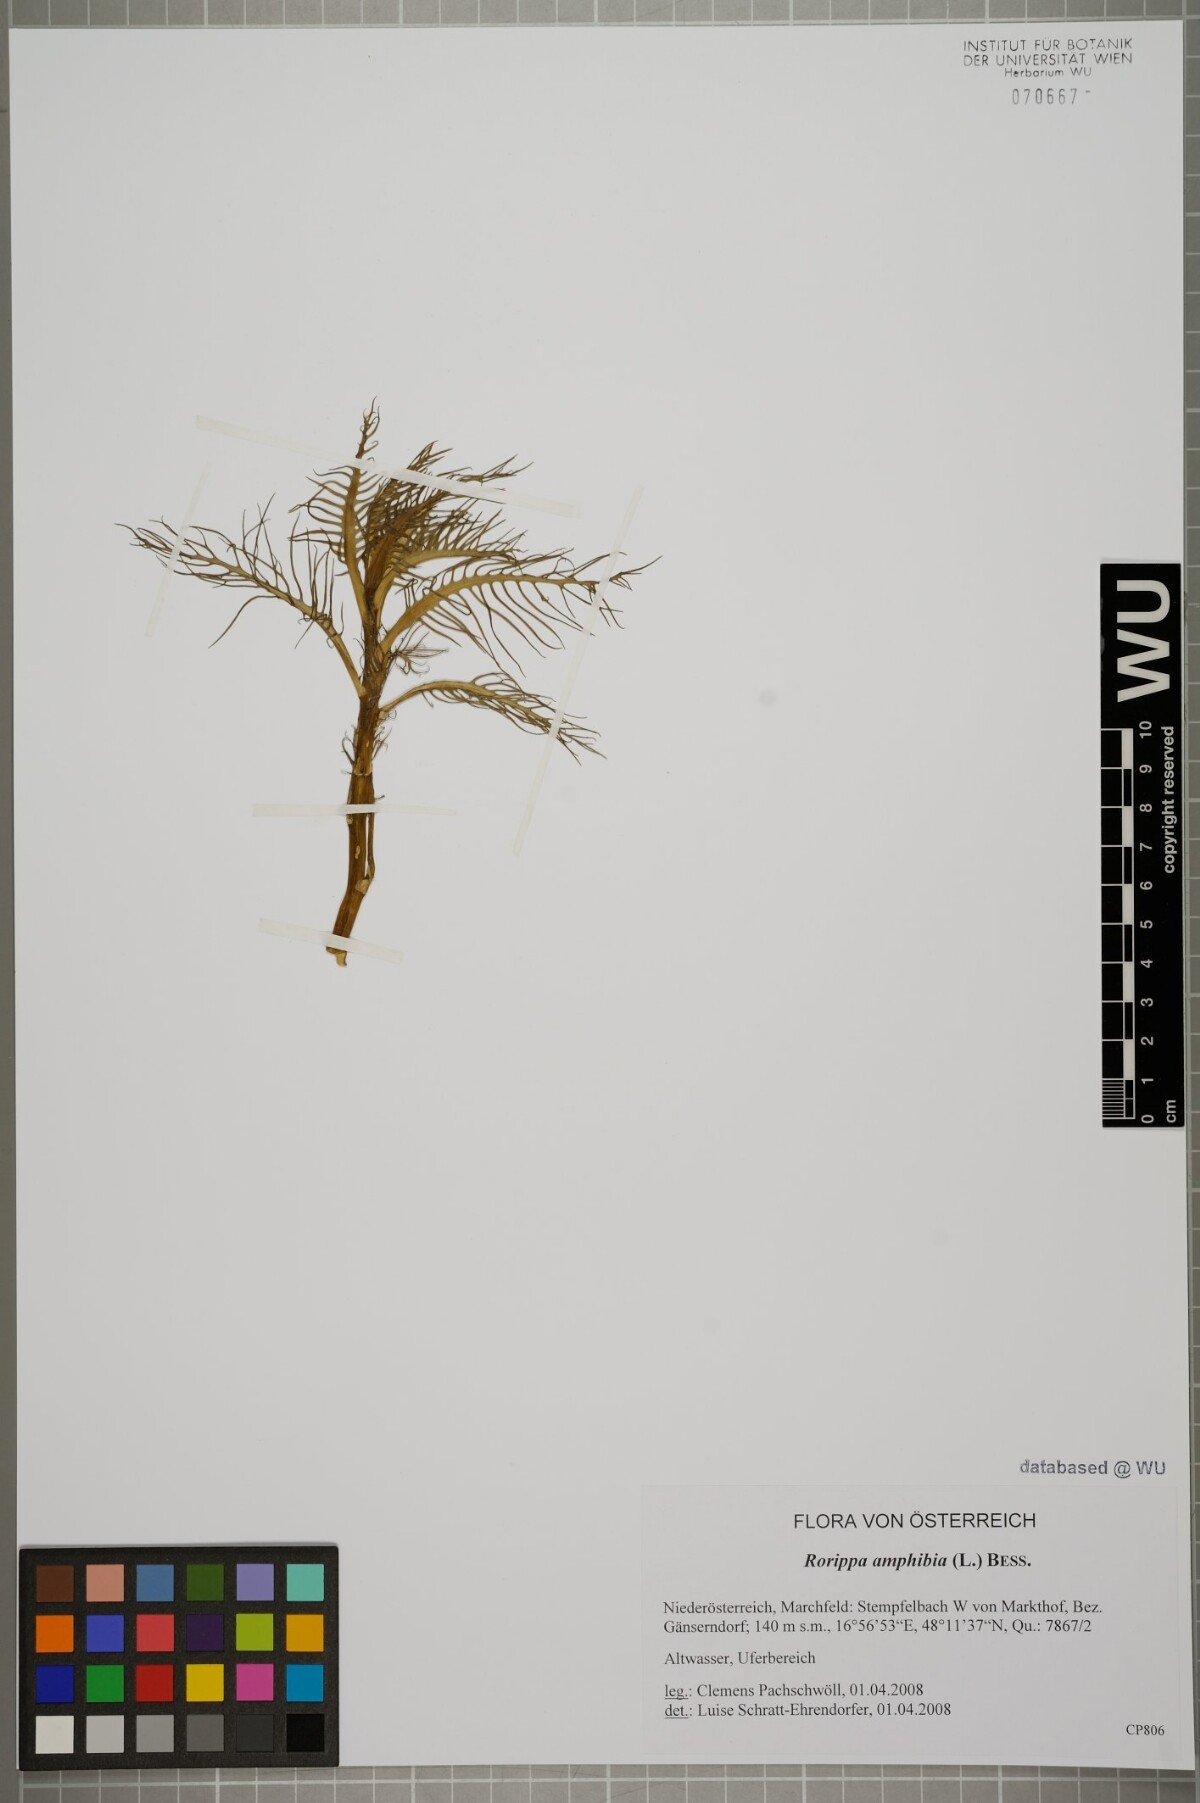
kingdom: Plantae
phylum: Tracheophyta
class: Magnoliopsida
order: Brassicales
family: Brassicaceae
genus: Rorippa
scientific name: Rorippa amphibia
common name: Great yellow-cress
